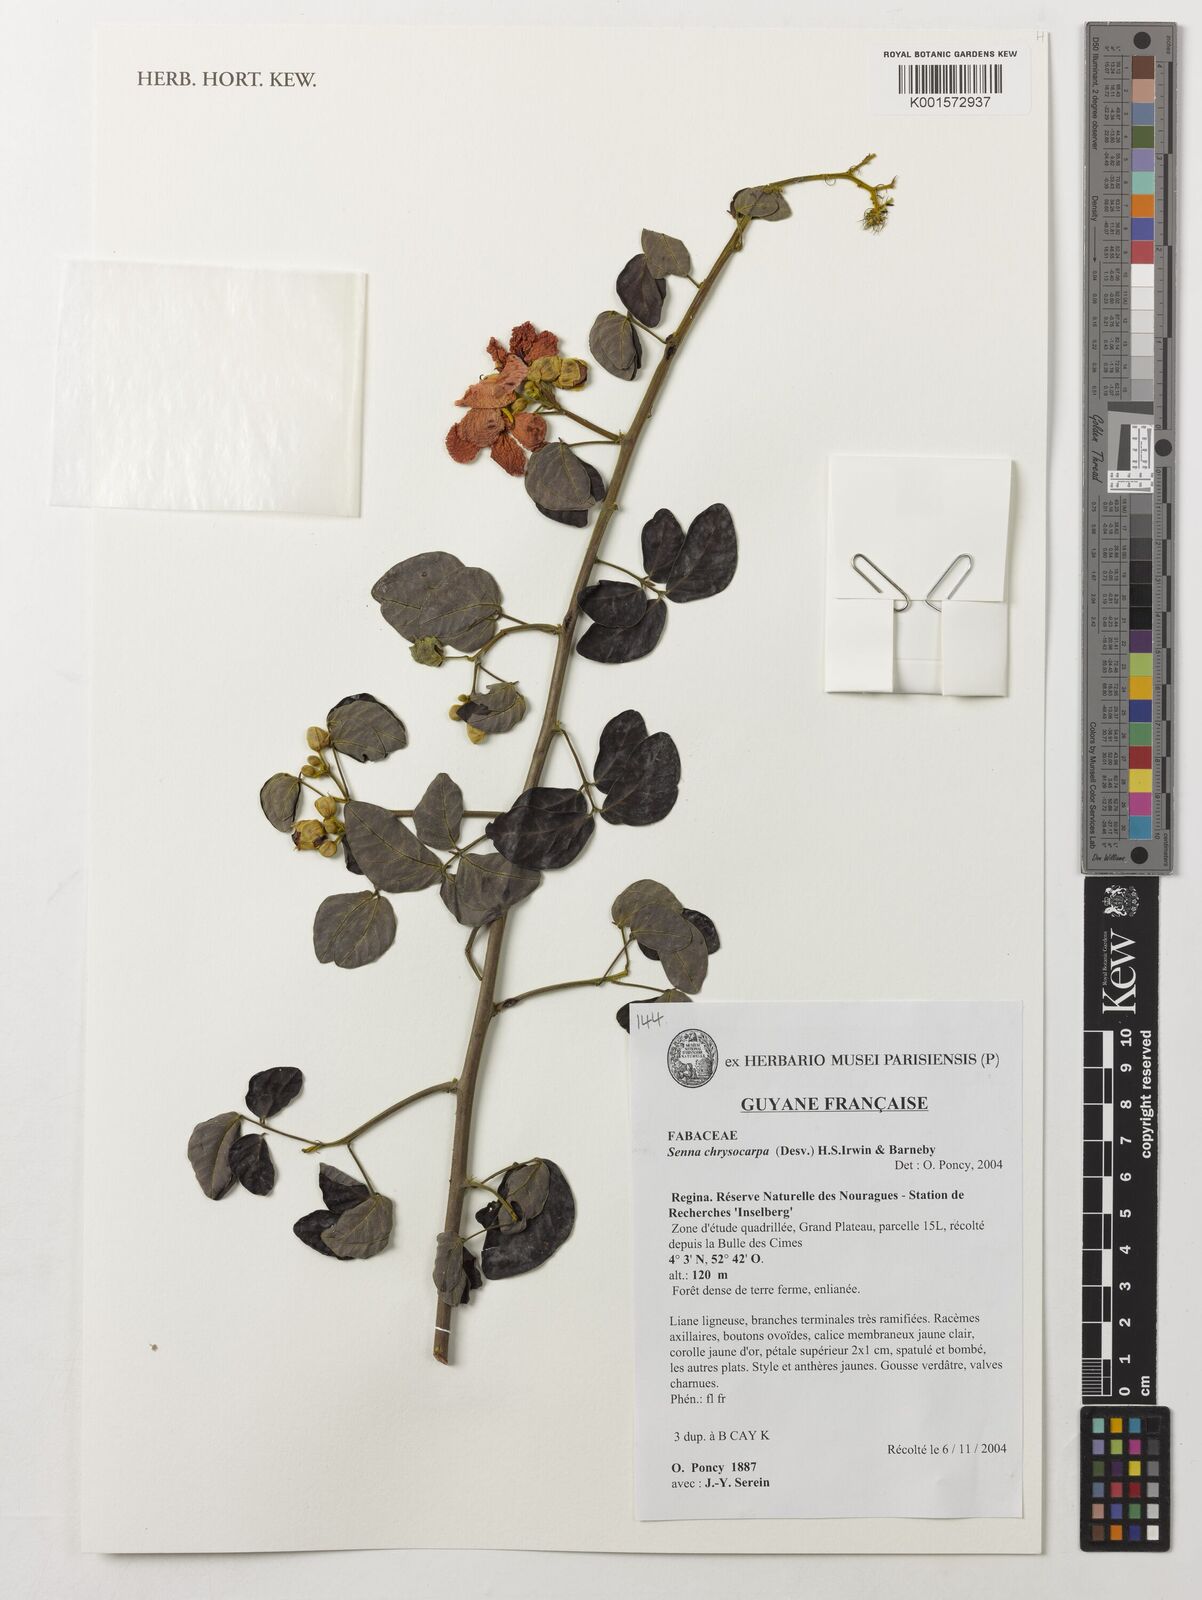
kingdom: Plantae
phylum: Tracheophyta
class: Magnoliopsida
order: Fabales
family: Fabaceae
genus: Senna
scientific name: Senna chrysocarpa
